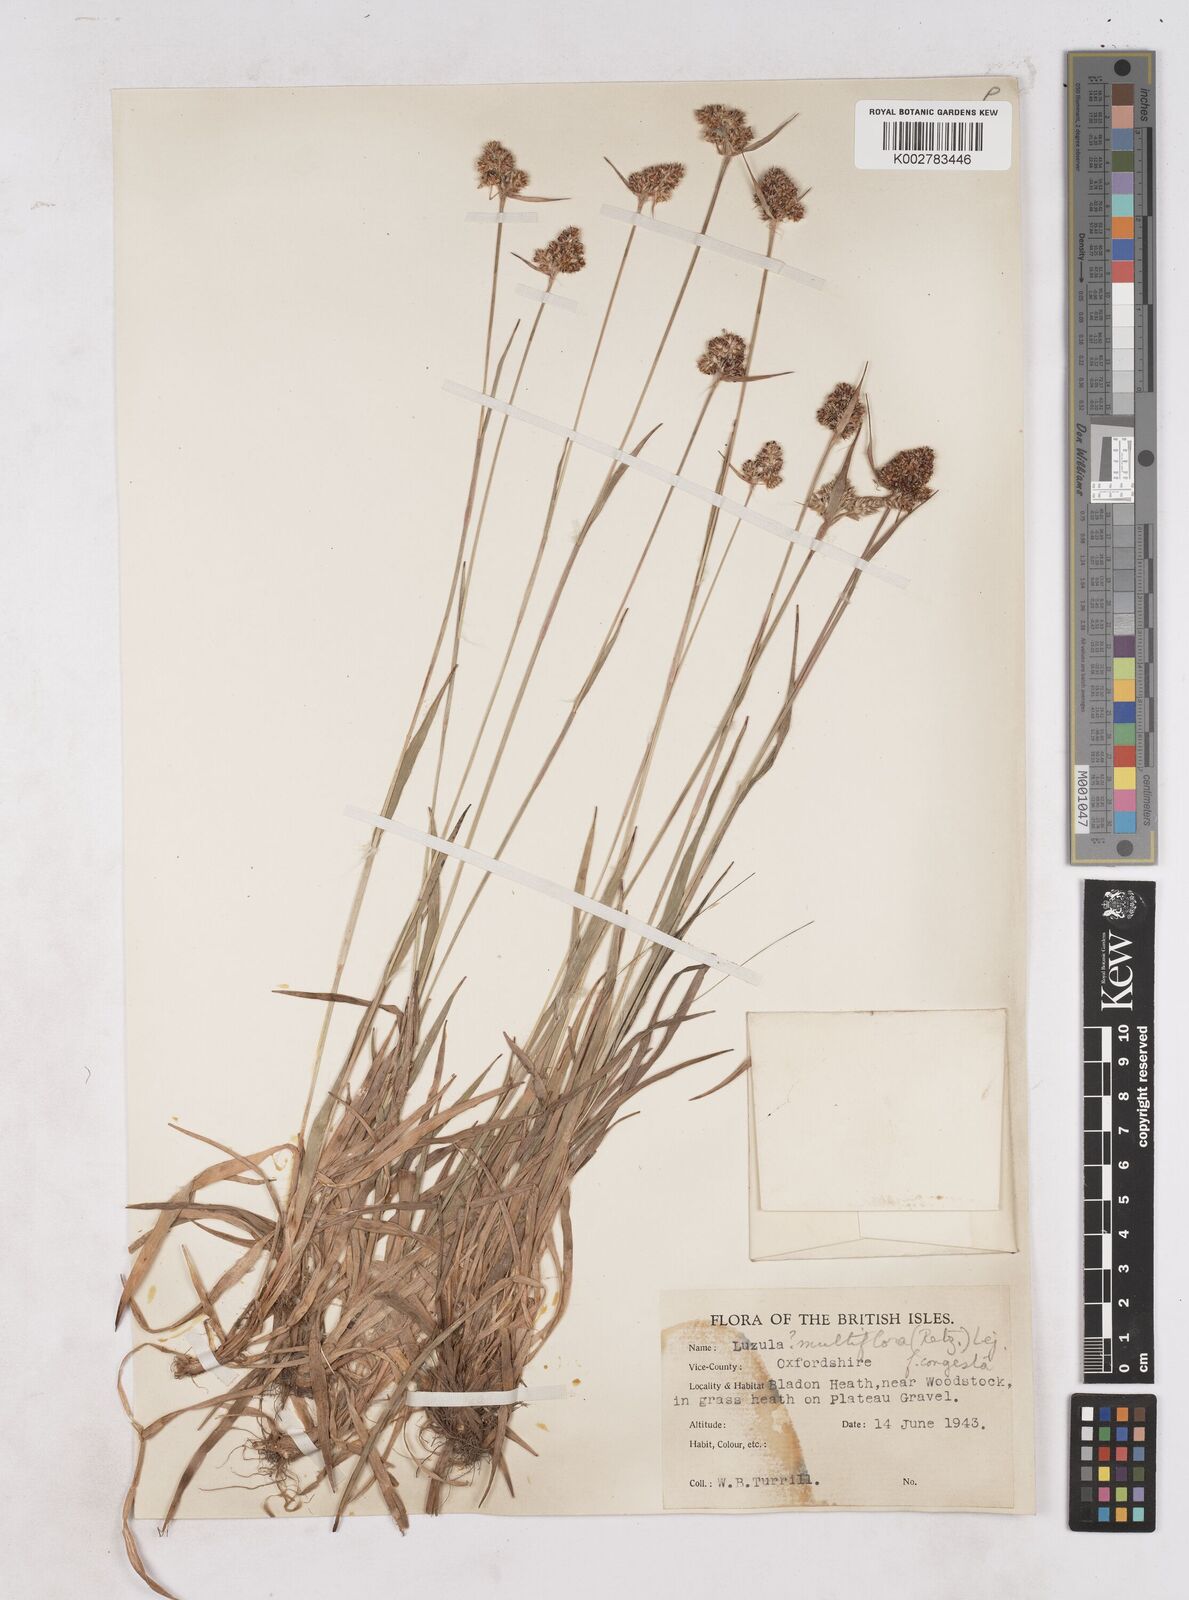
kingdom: Plantae
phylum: Tracheophyta
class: Liliopsida
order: Poales
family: Juncaceae
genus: Luzula
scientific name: Luzula campestris
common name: Field wood-rush
